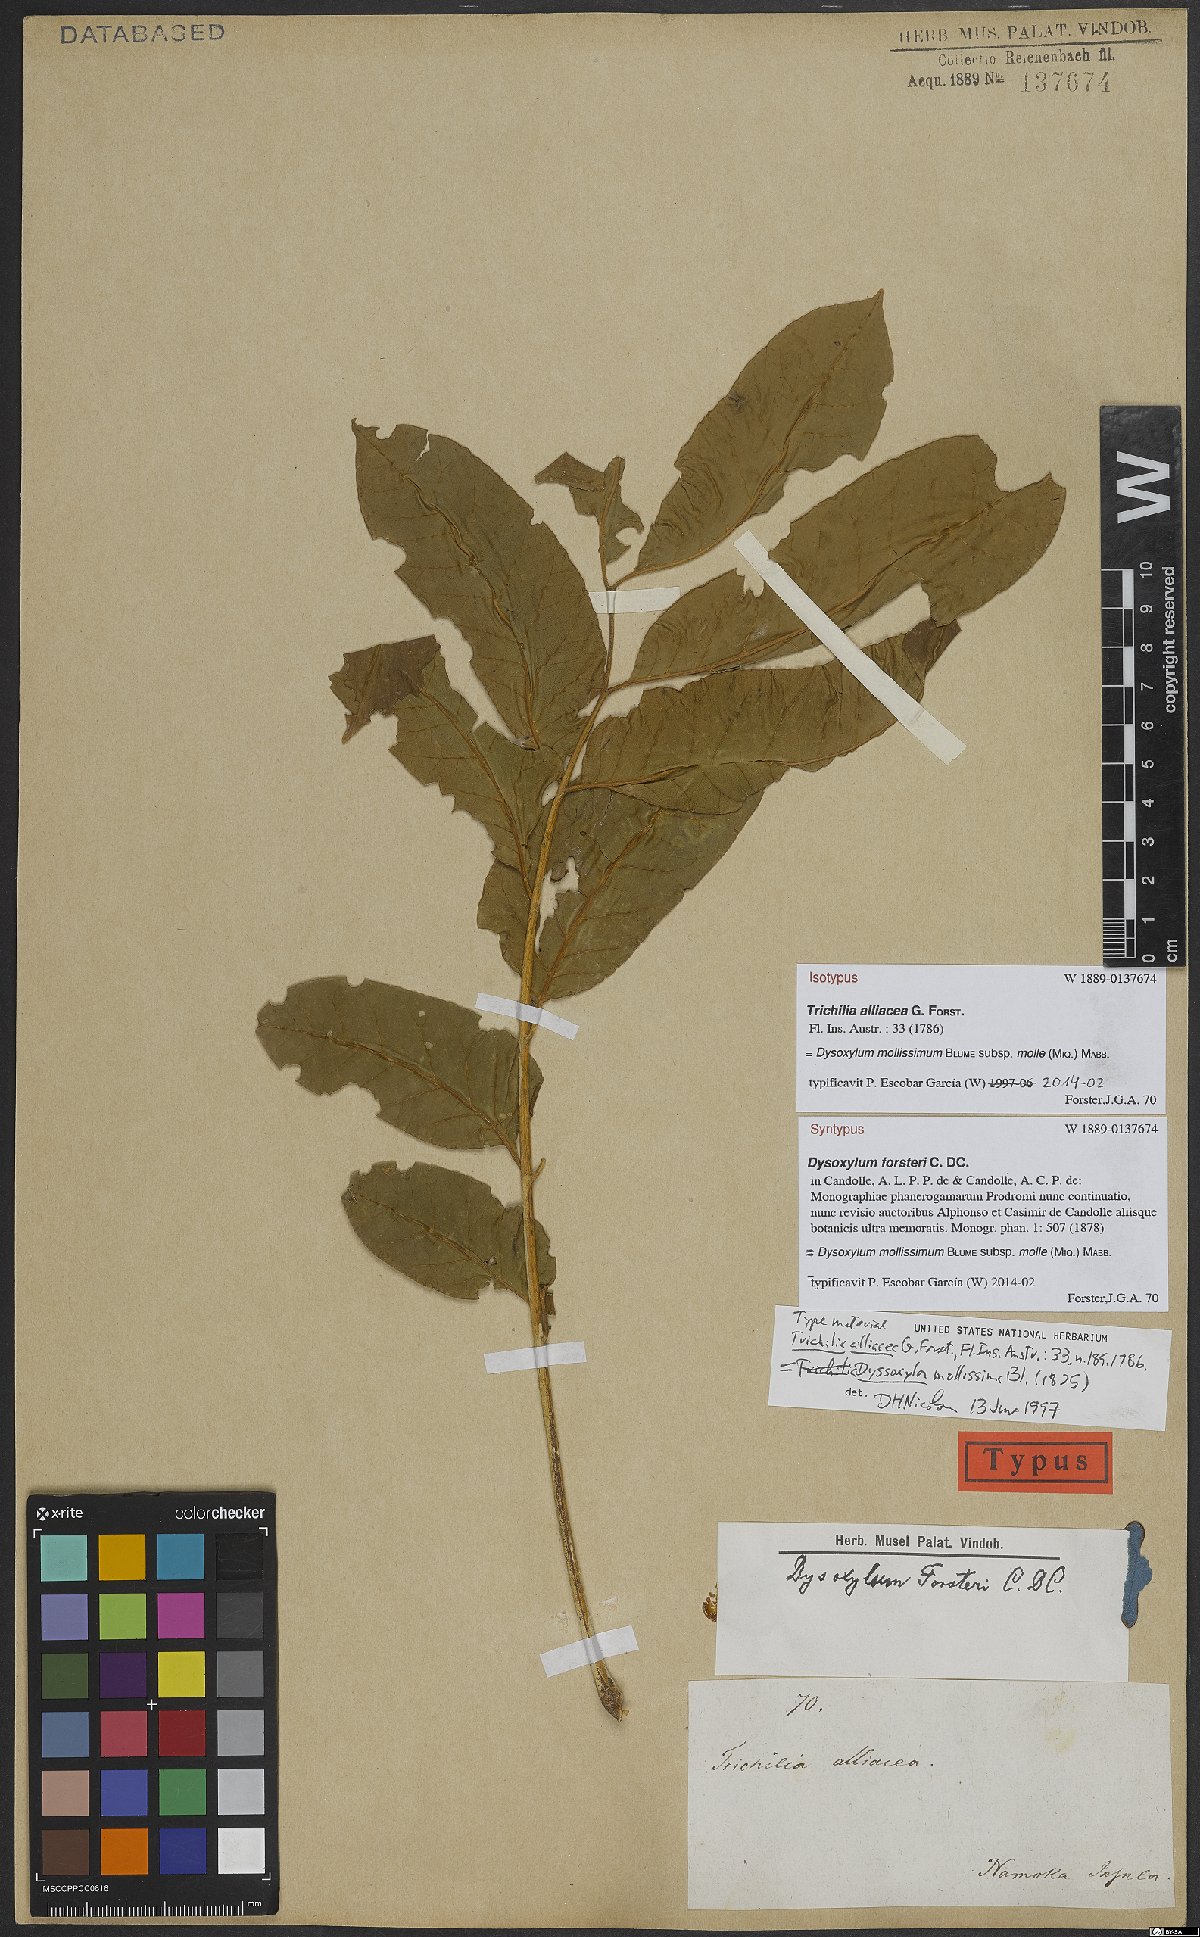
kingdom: Plantae
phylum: Tracheophyta
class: Magnoliopsida
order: Sapindales
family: Meliaceae
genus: Didymocheton
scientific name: Didymocheton mollis
